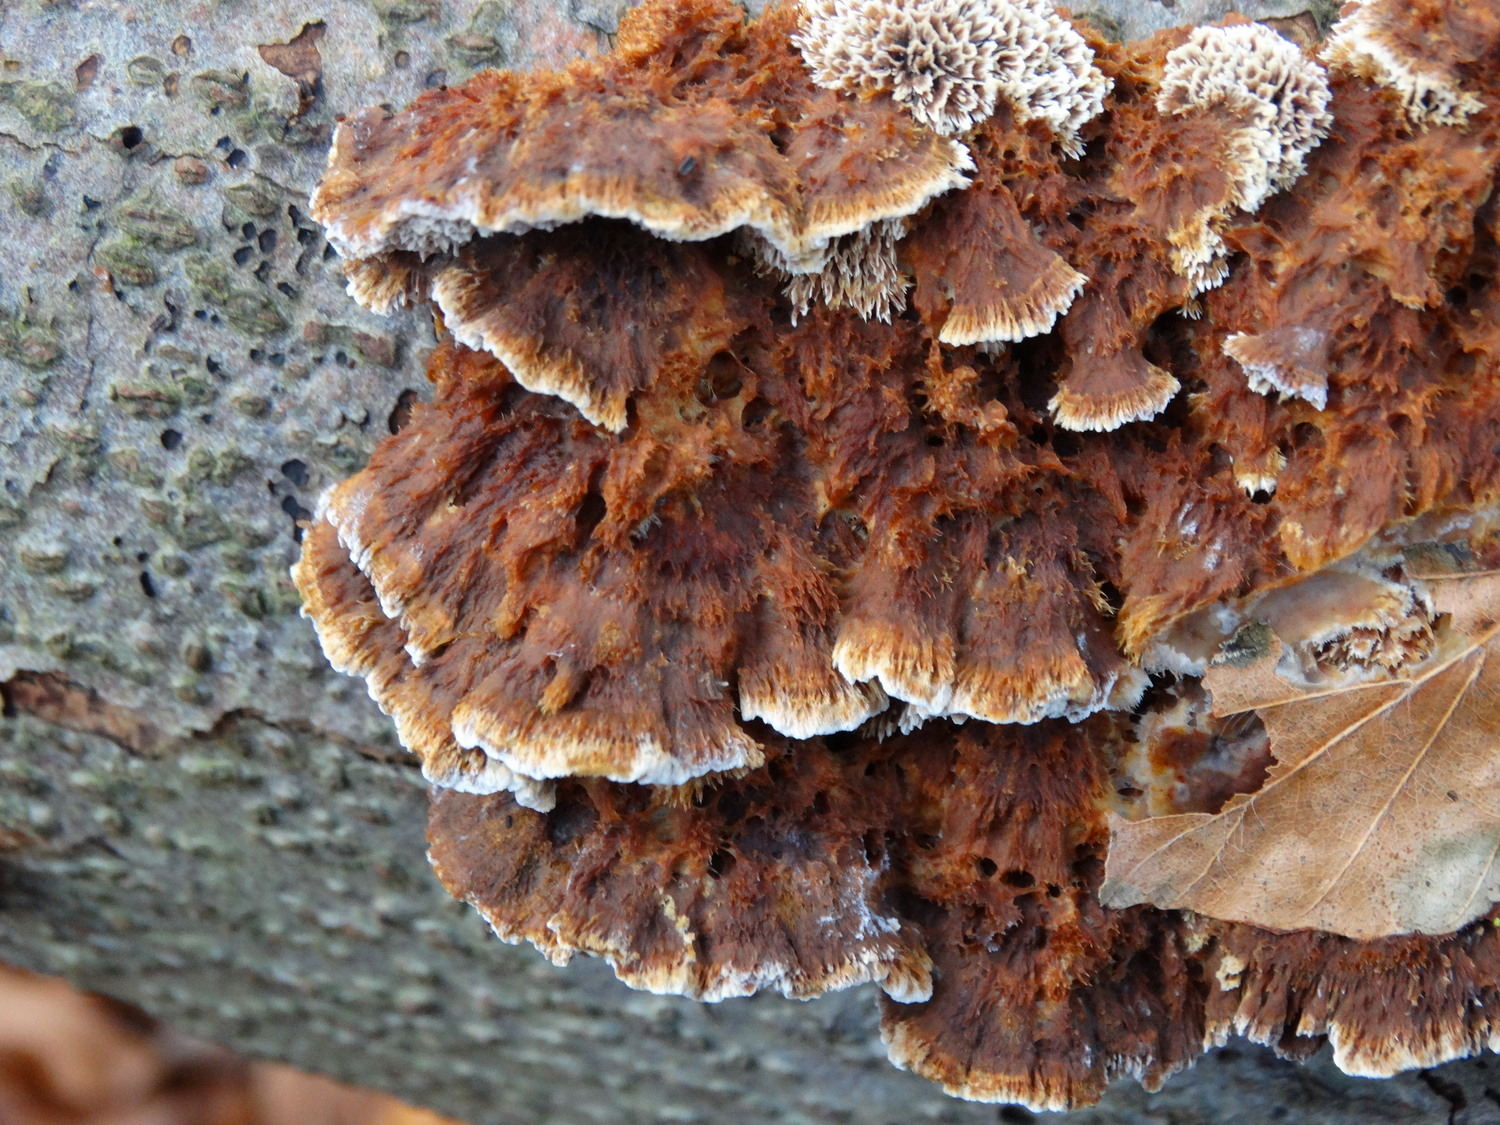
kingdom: Fungi
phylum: Basidiomycota
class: Agaricomycetes
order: Hymenochaetales
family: Hymenochaetaceae
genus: Mensularia
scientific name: Mensularia nodulosa
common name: bøge-spejlporesvamp
